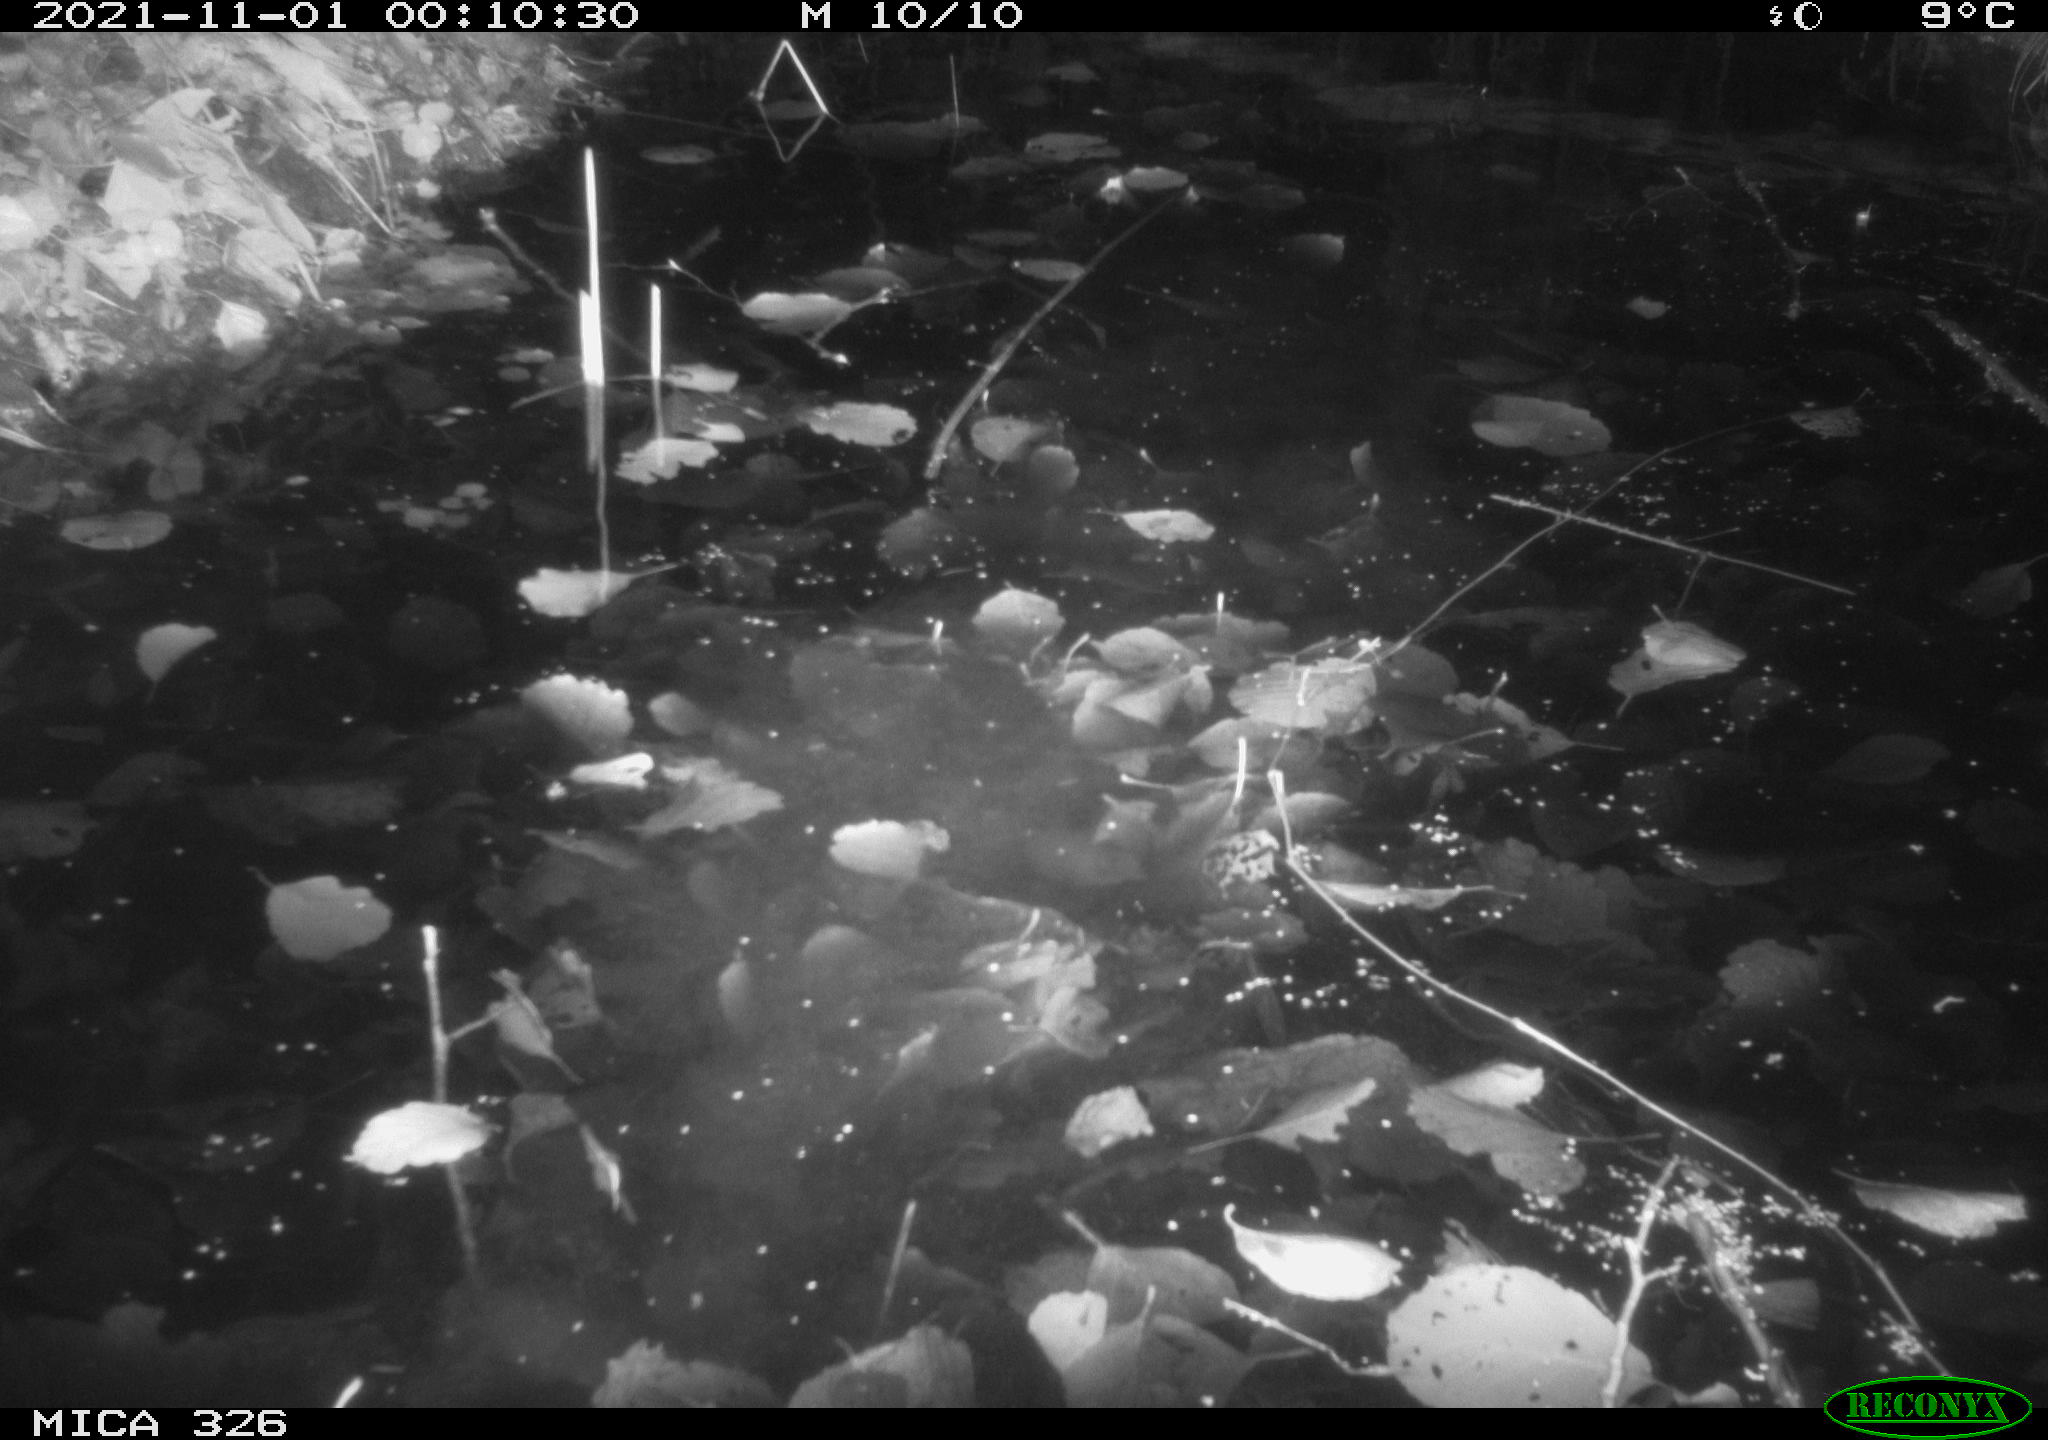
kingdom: Animalia
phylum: Chordata
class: Mammalia
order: Rodentia
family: Myocastoridae
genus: Myocastor
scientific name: Myocastor coypus
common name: Coypu
